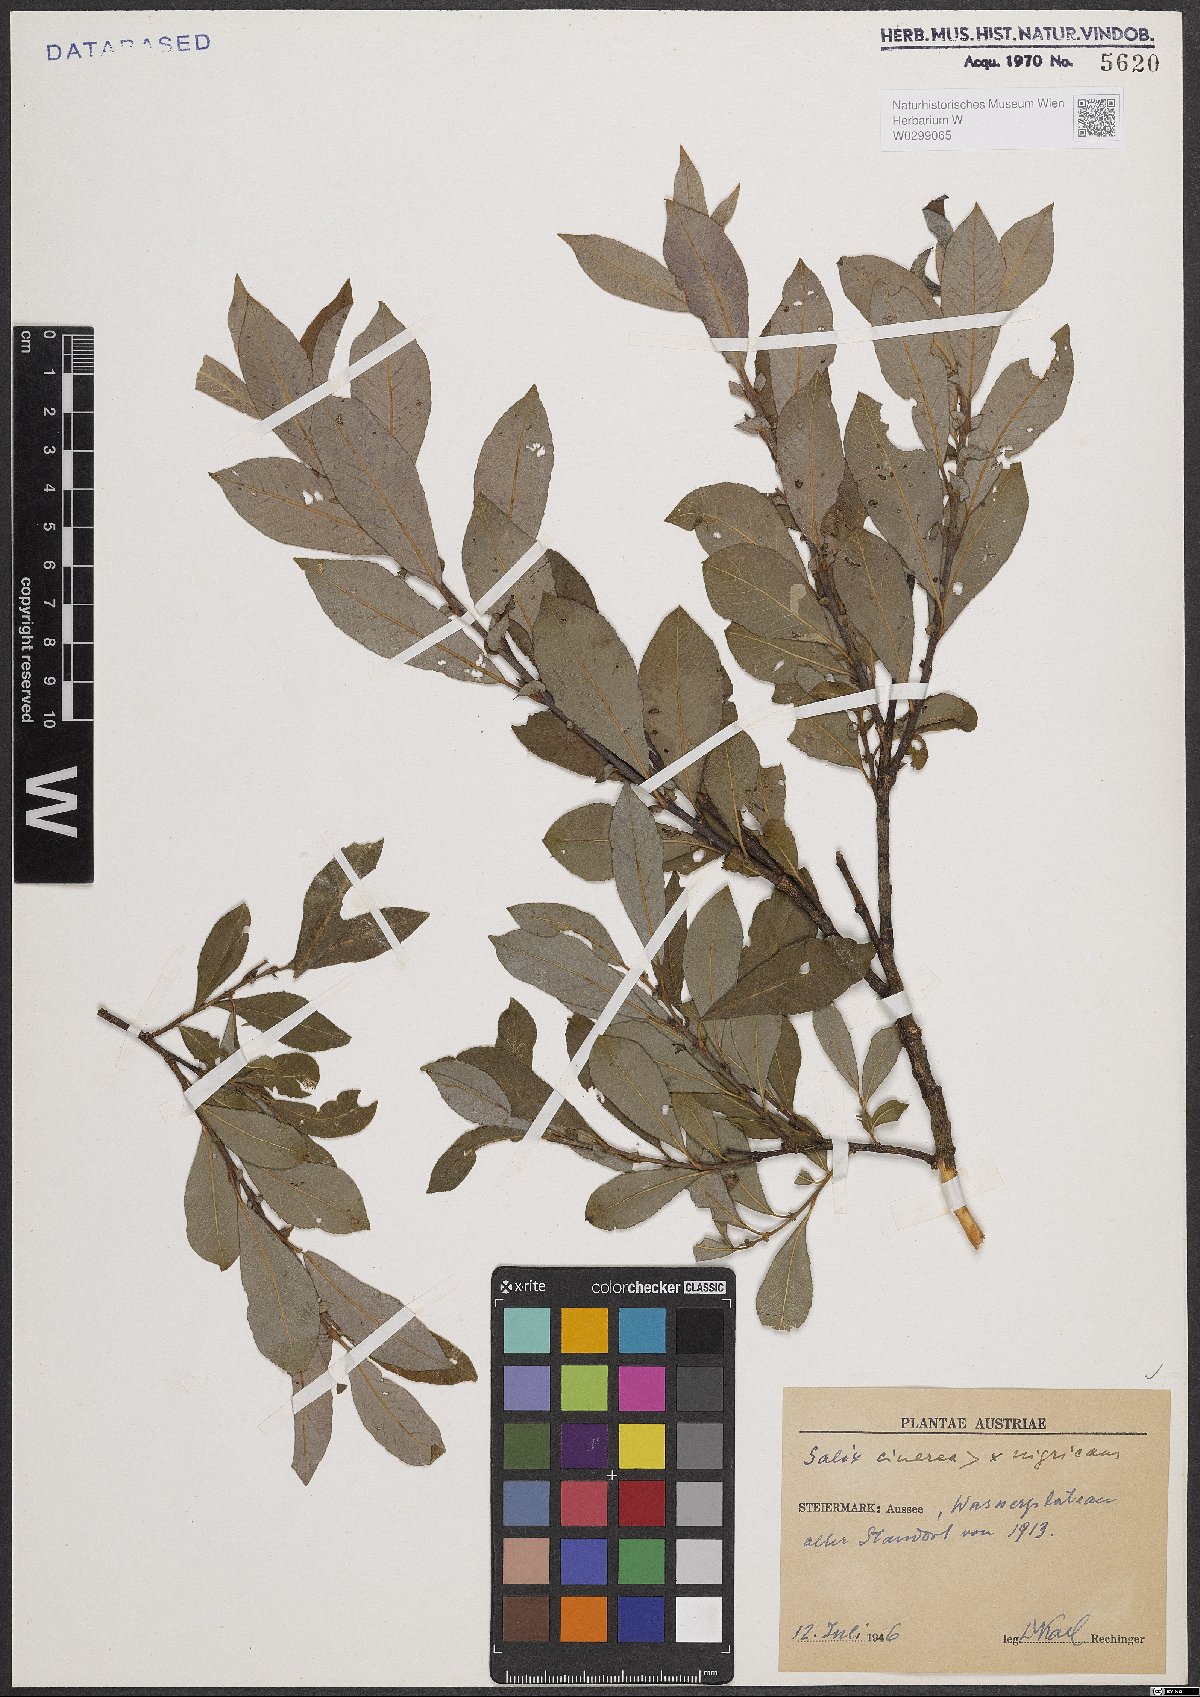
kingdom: Plantae
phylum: Tracheophyta
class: Magnoliopsida
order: Malpighiales
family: Salicaceae
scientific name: Salicaceae
